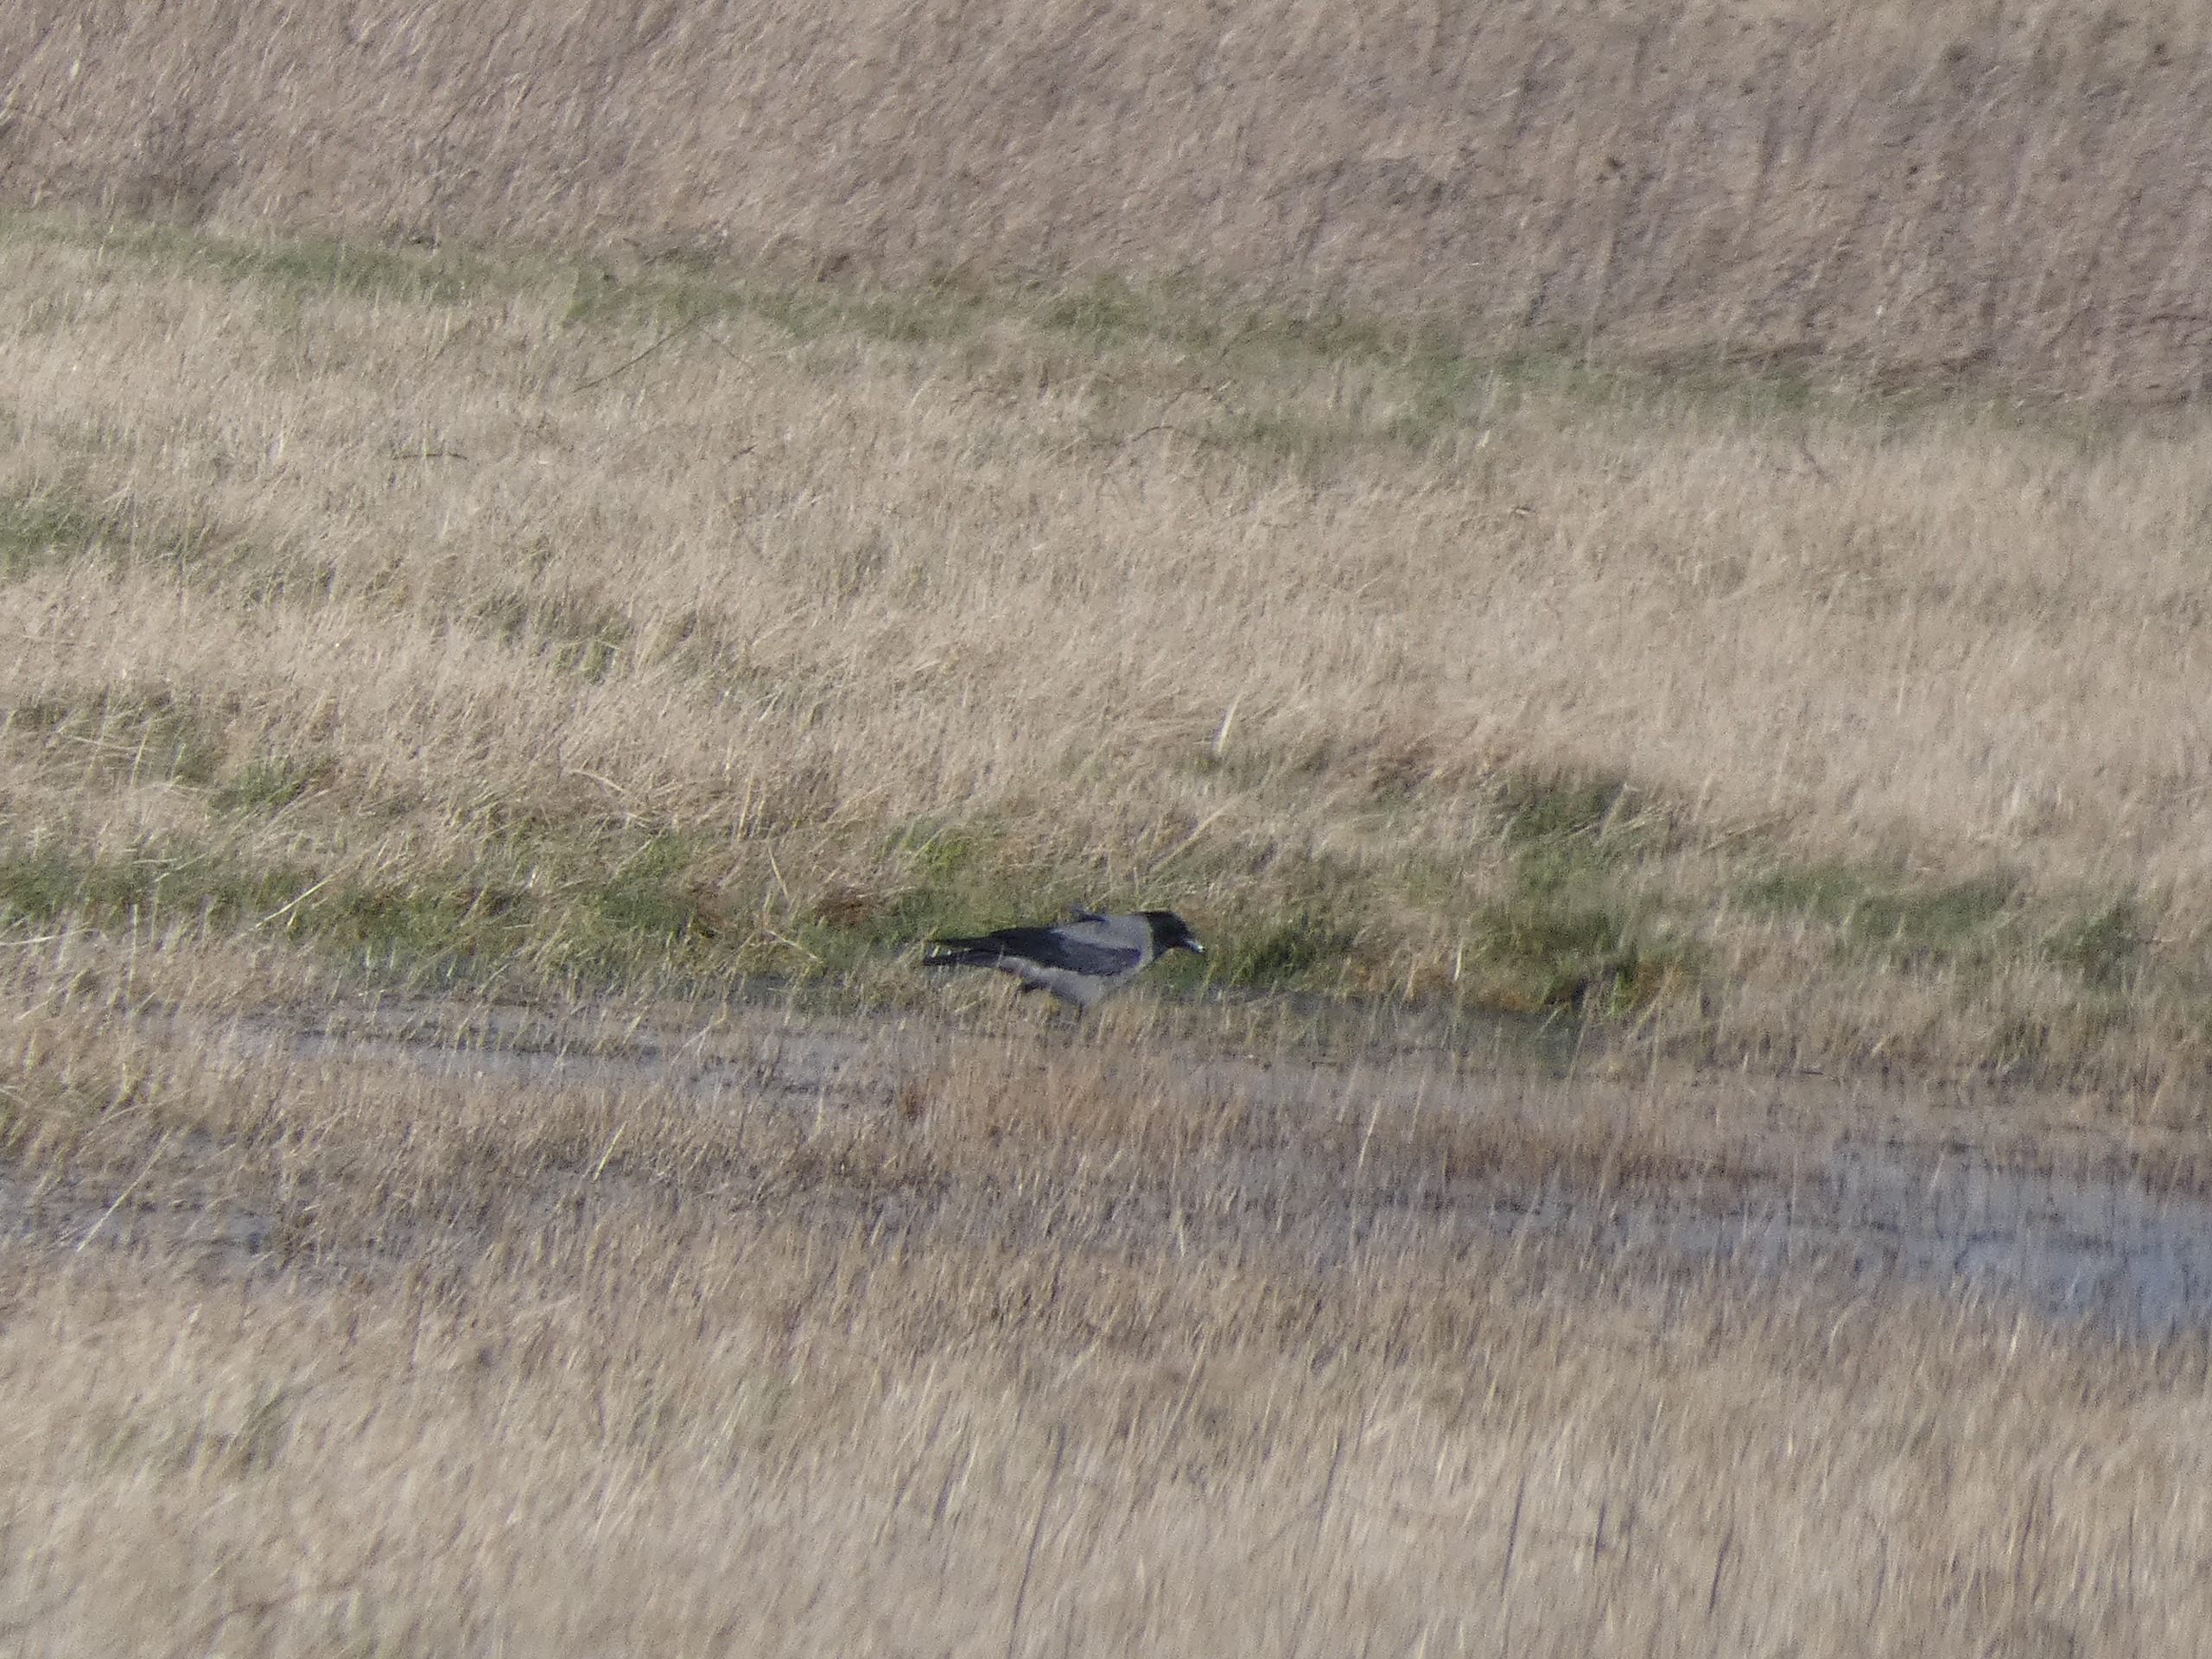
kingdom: Animalia
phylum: Chordata
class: Aves
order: Passeriformes
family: Corvidae
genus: Corvus
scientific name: Corvus cornix
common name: Gråkrage
